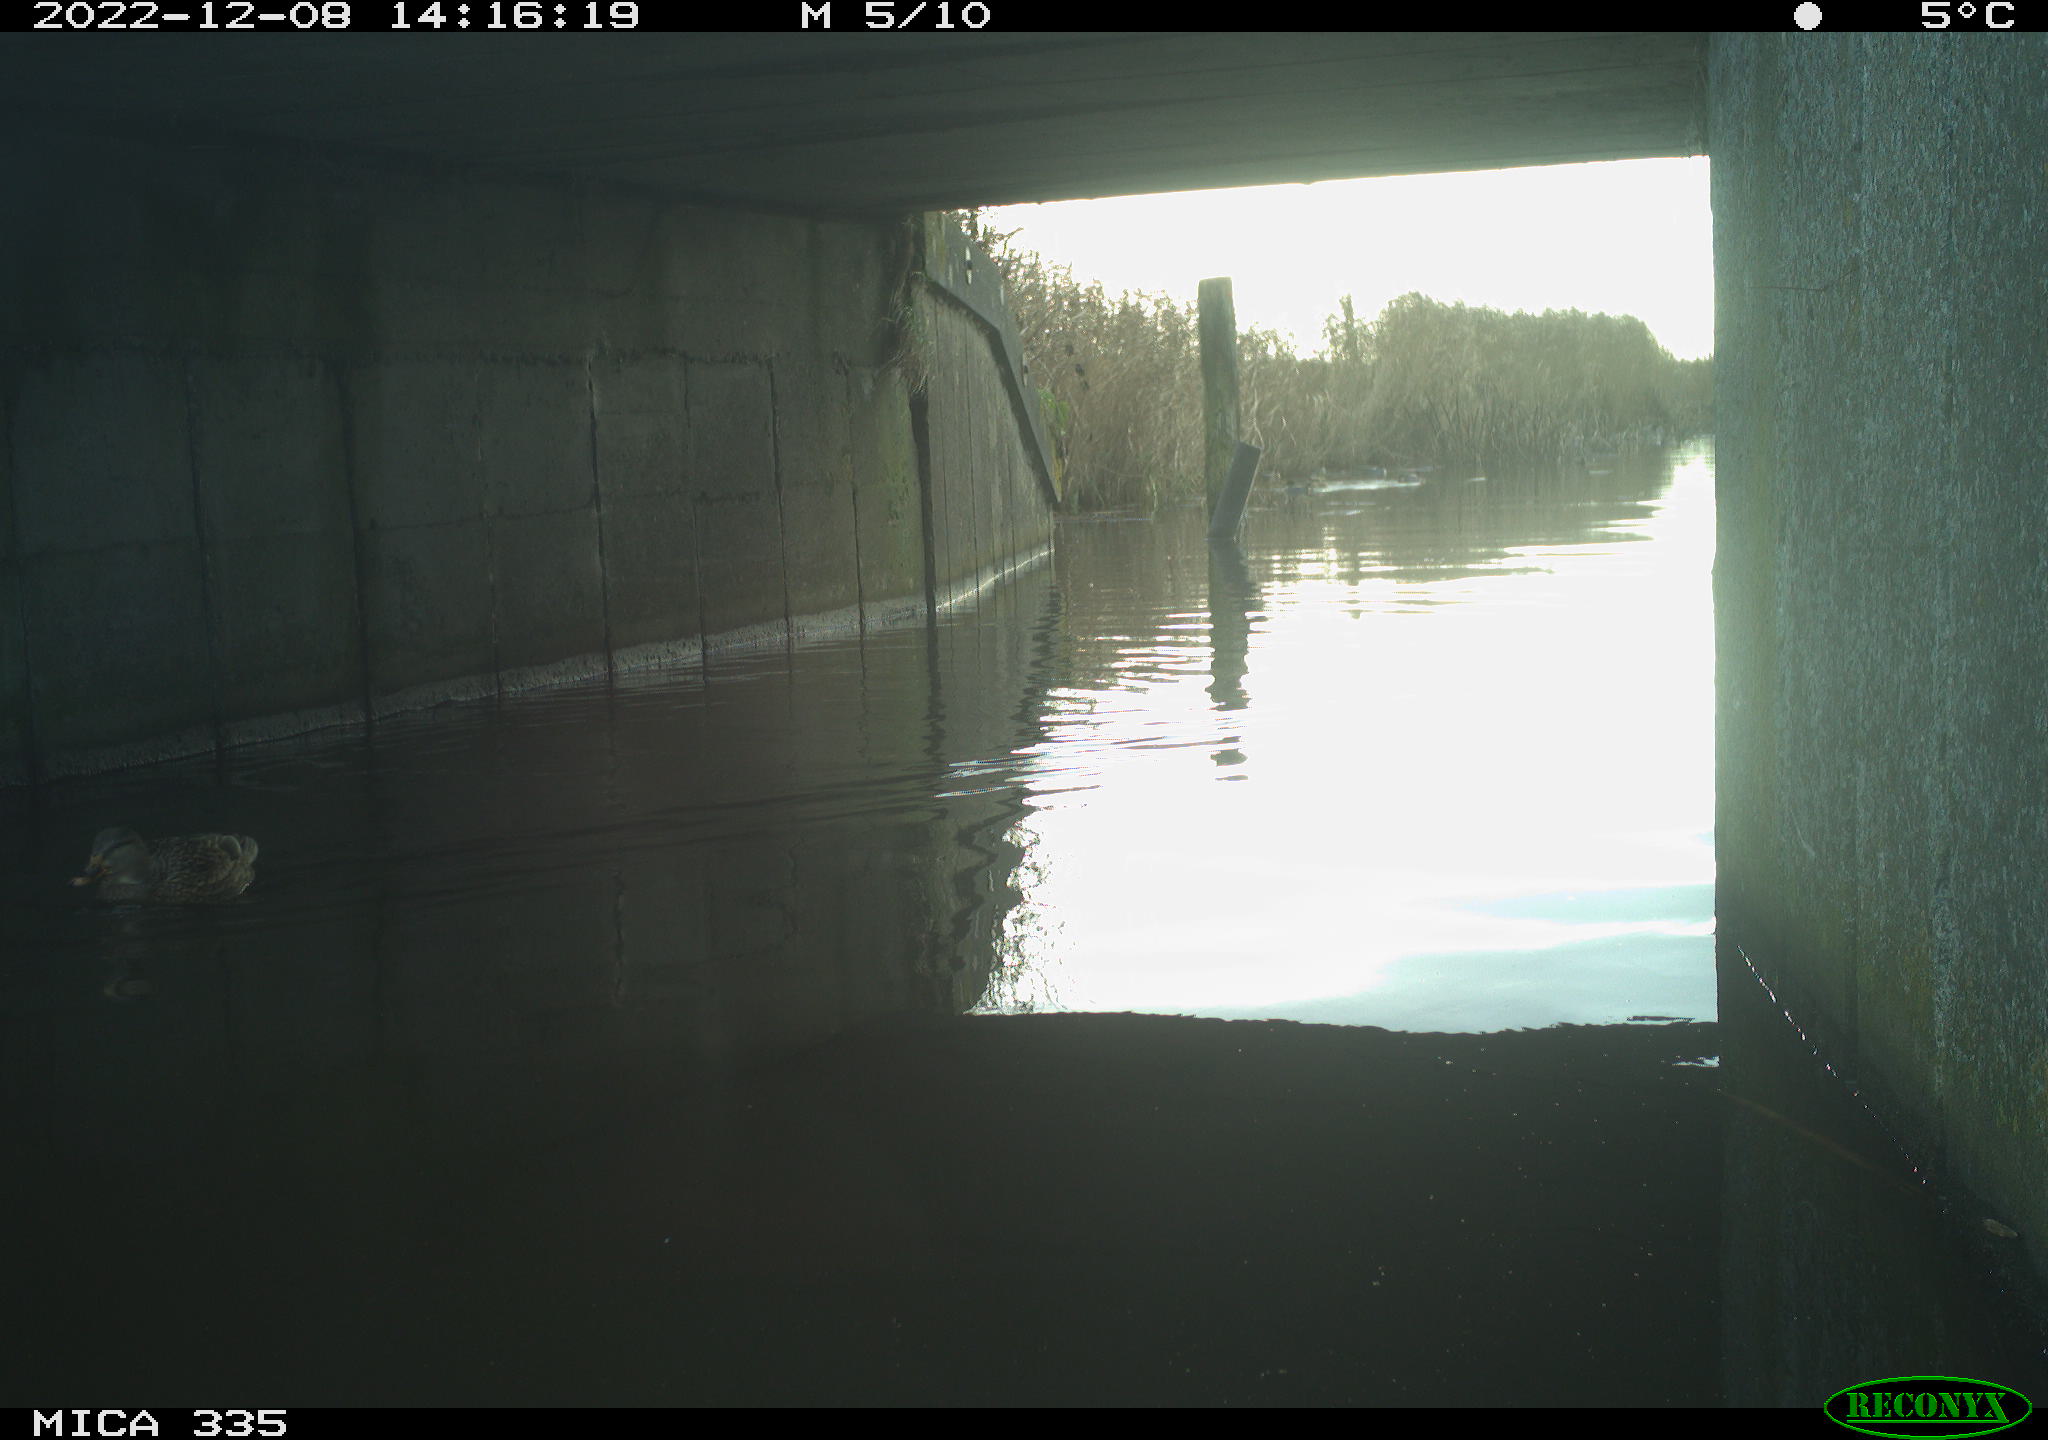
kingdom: Animalia
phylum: Chordata
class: Aves
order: Anseriformes
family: Anatidae
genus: Anas
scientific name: Anas
